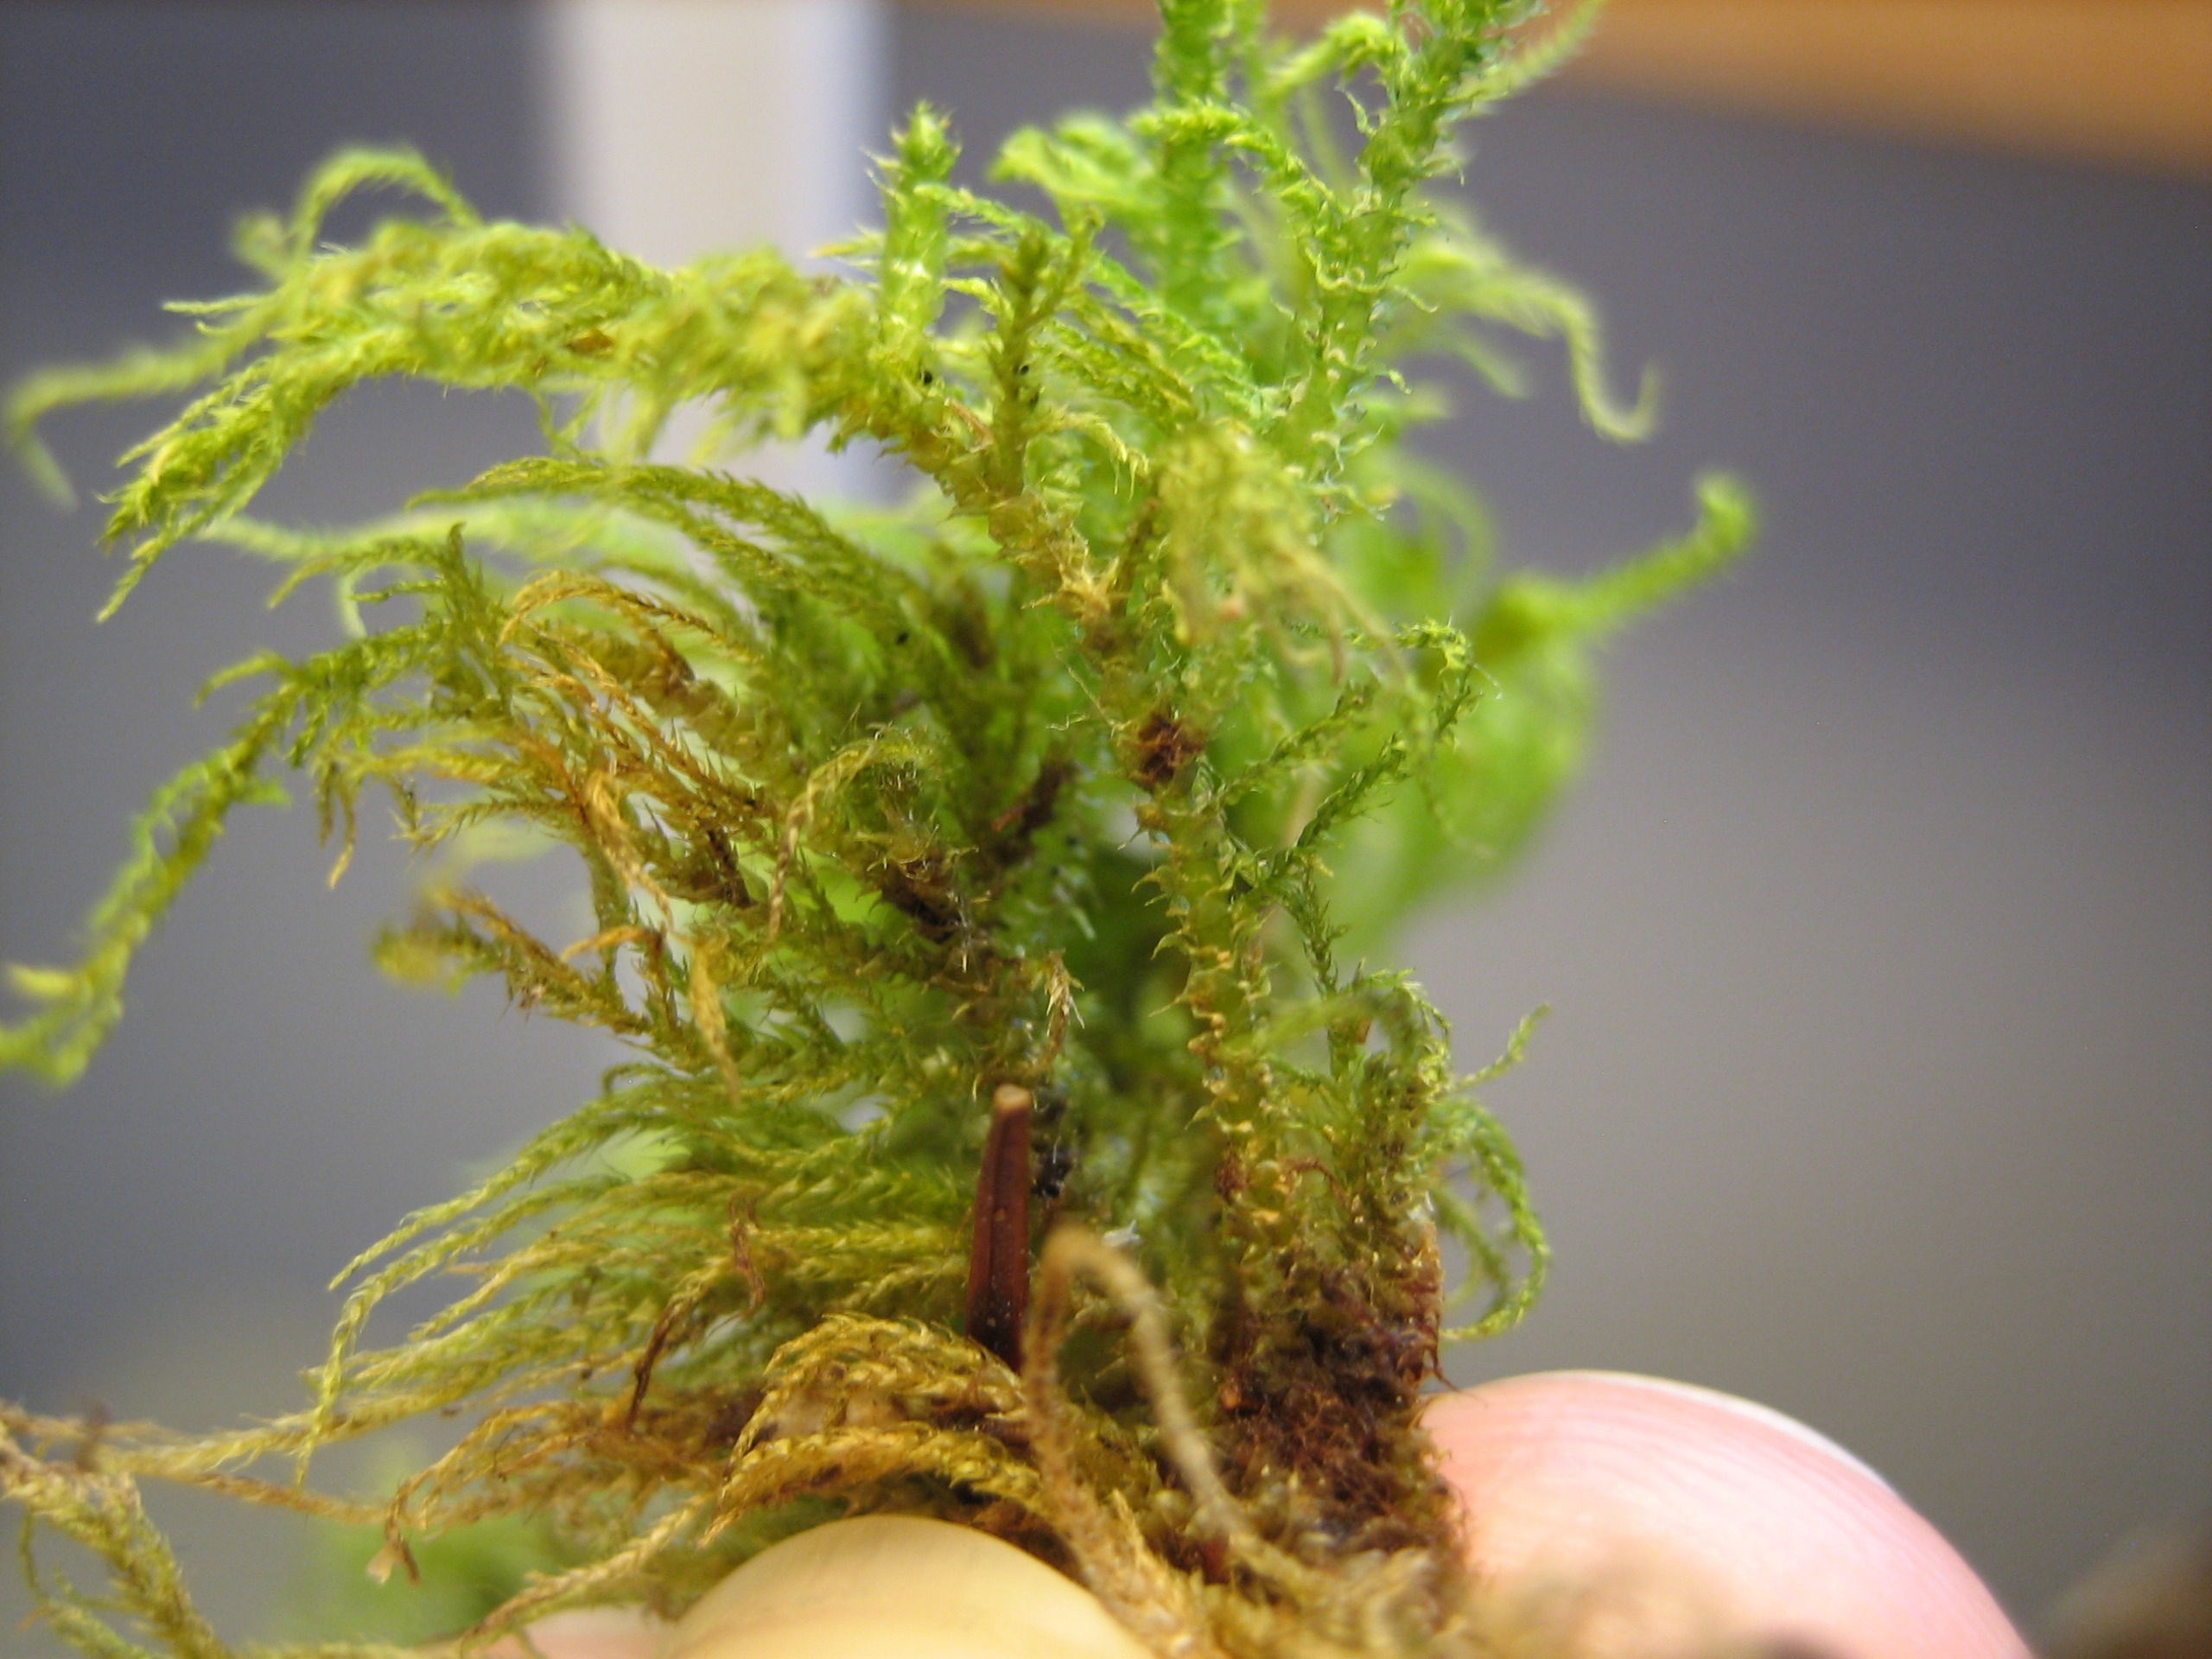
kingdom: Plantae
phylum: Bryophyta
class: Bryopsida
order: Hypnales
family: Brachytheciaceae
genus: Kindbergia
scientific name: Kindbergia praelonga
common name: Forskelligbladet vortetand
